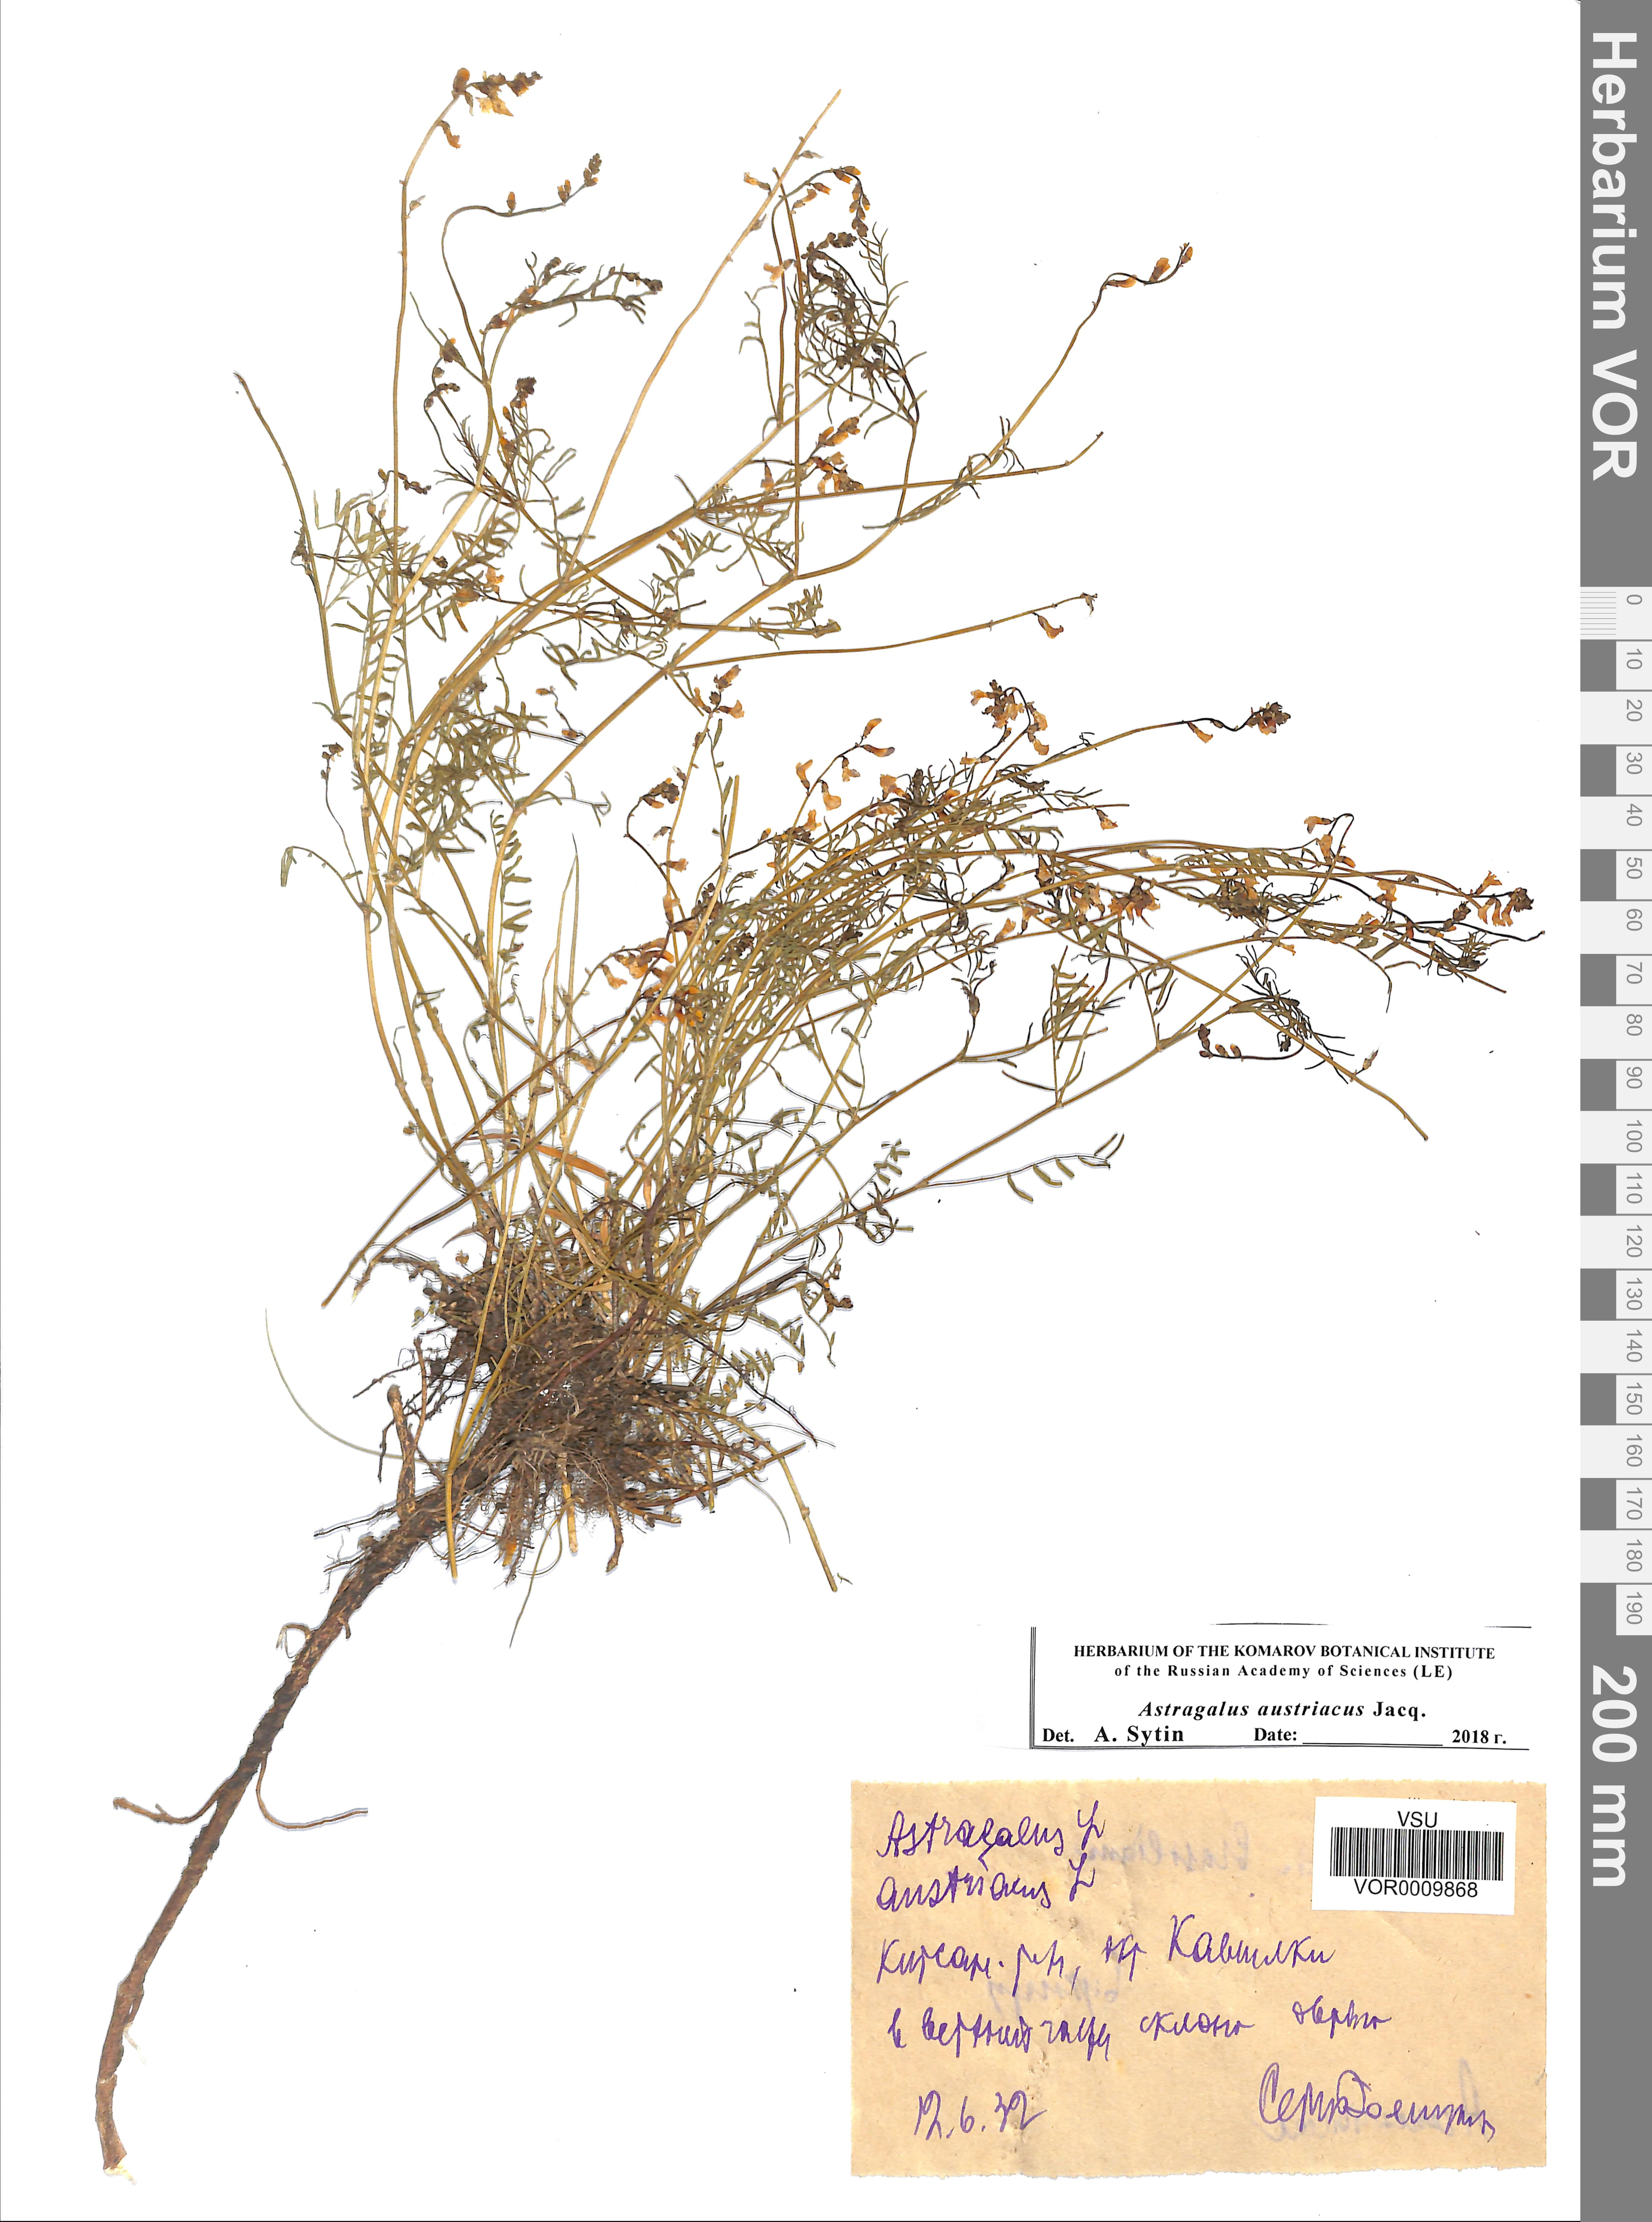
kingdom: Plantae
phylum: Tracheophyta
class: Magnoliopsida
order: Fabales
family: Fabaceae
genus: Astragalus
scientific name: Astragalus austriacus
